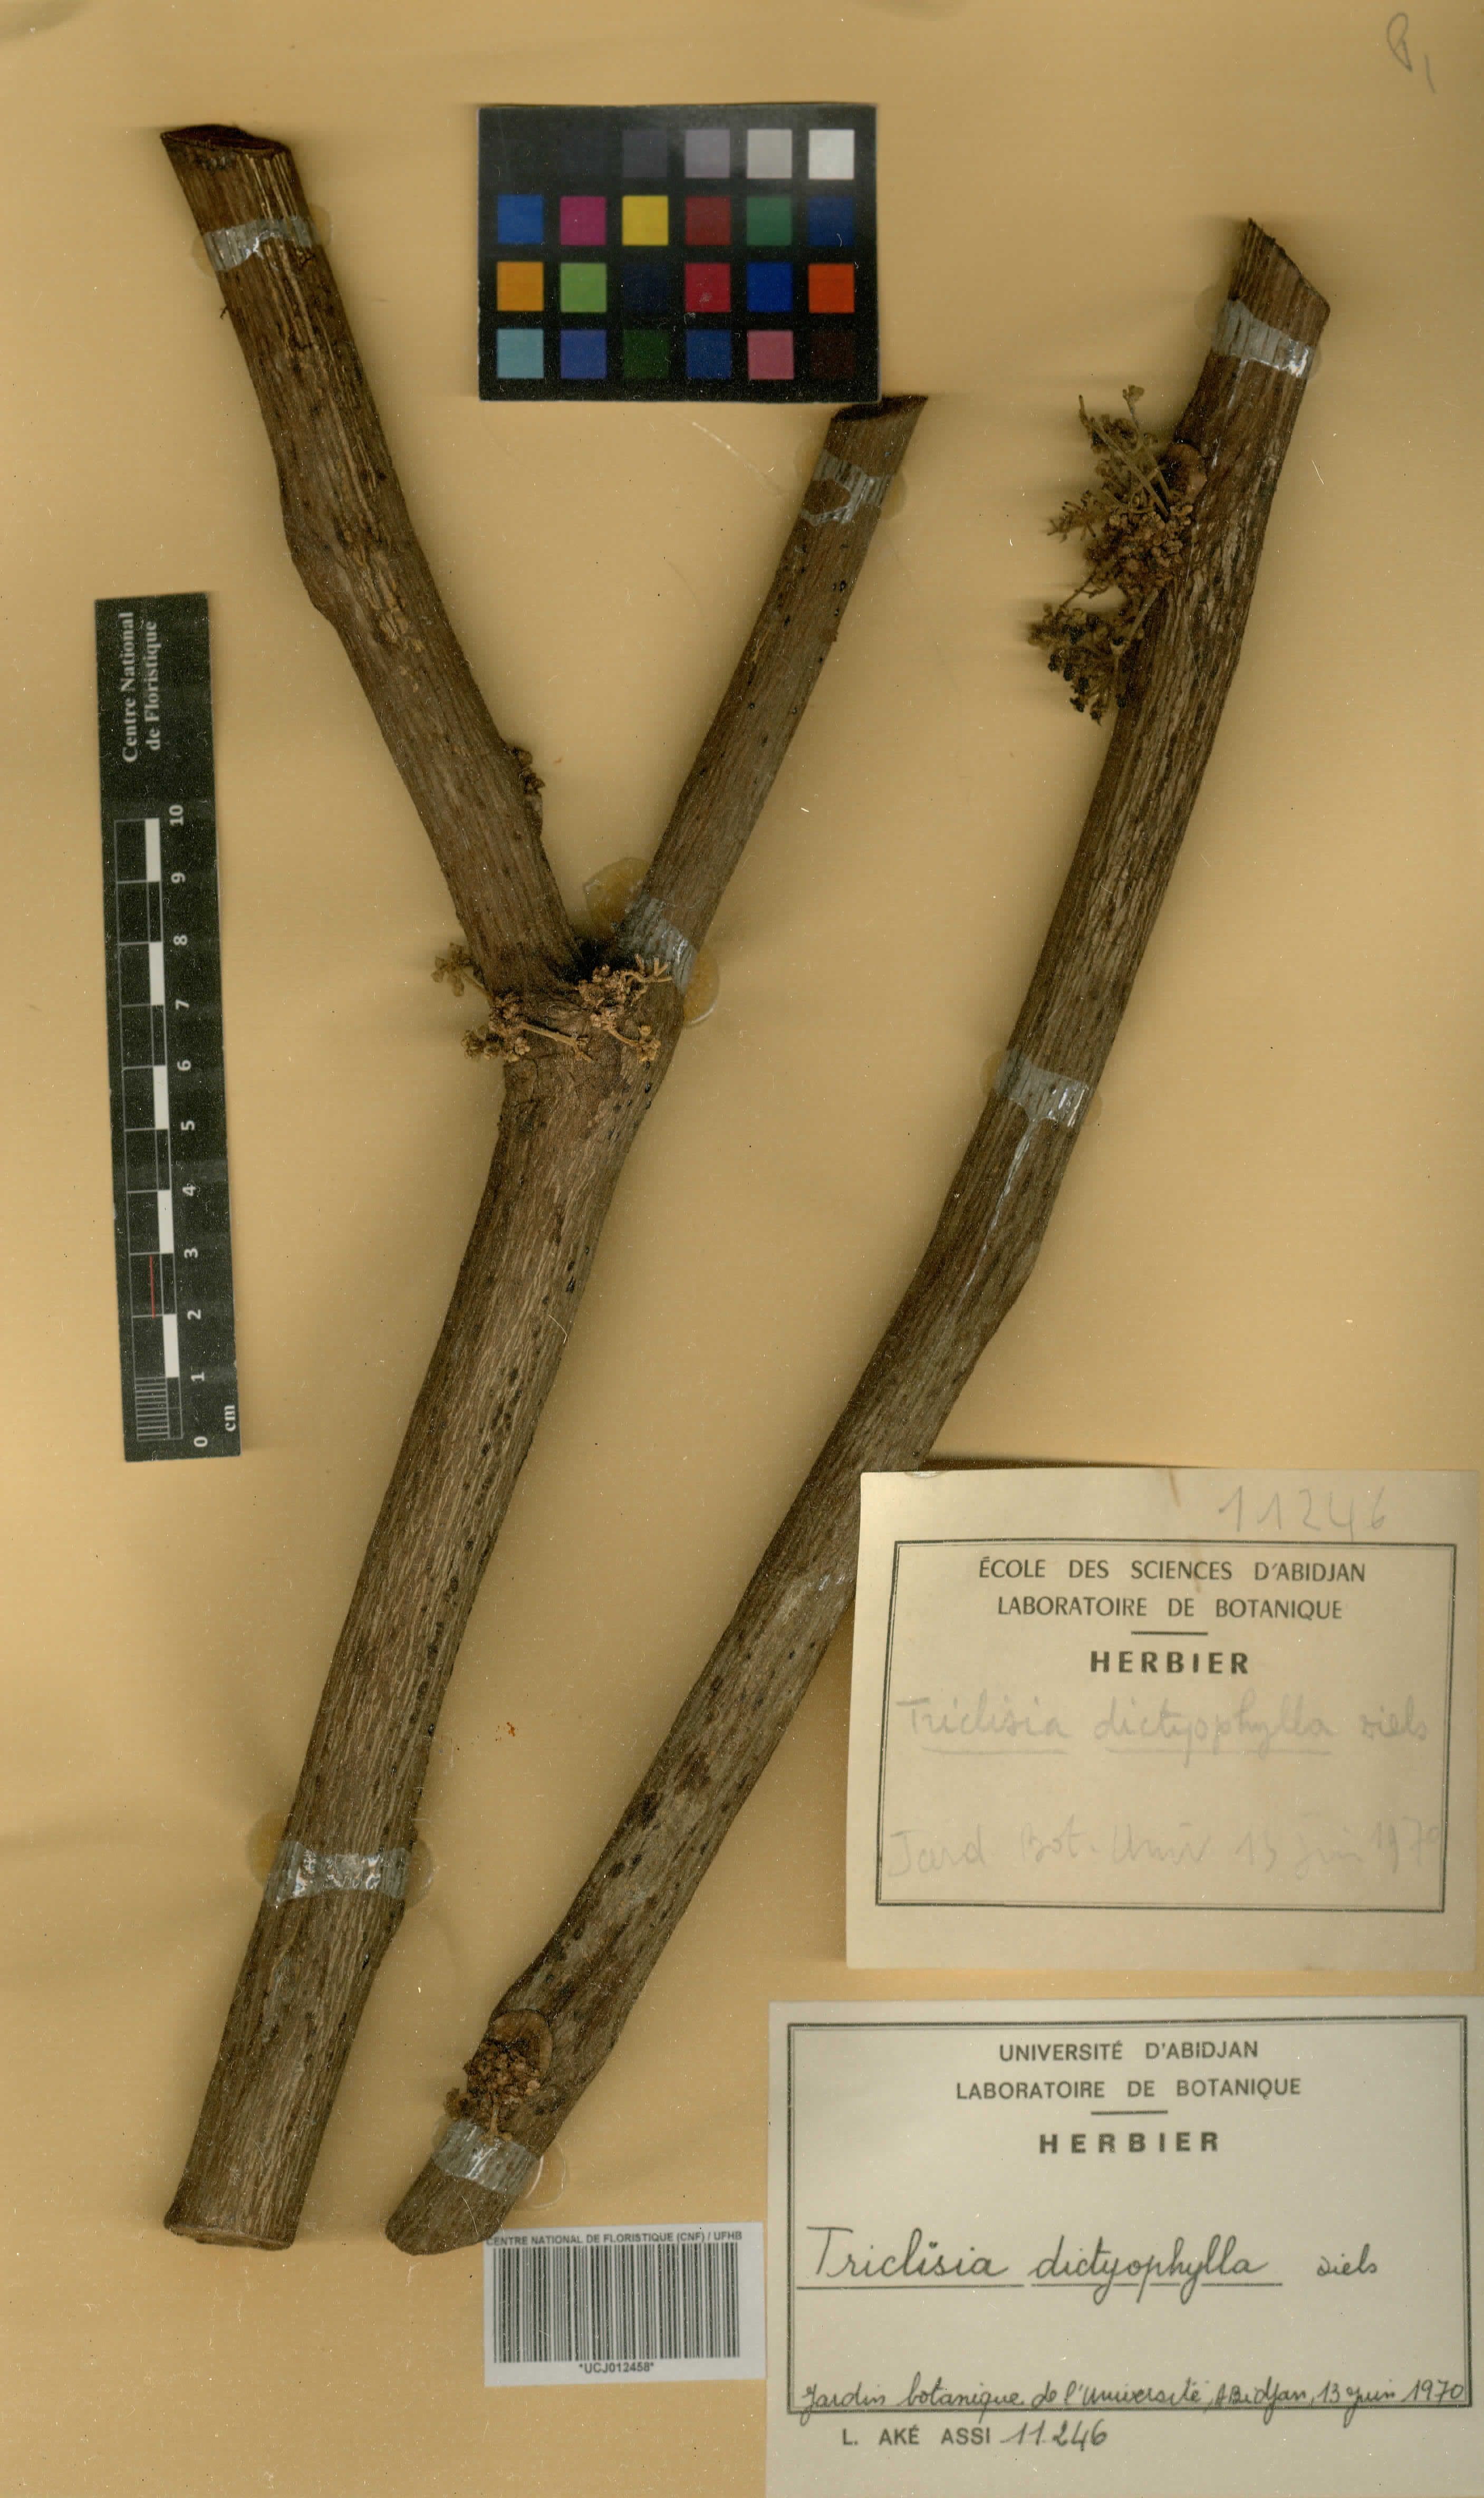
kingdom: Plantae
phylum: Tracheophyta
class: Magnoliopsida
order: Ranunculales
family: Menispermaceae
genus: Triclisia
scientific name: Triclisia dictyophylla
